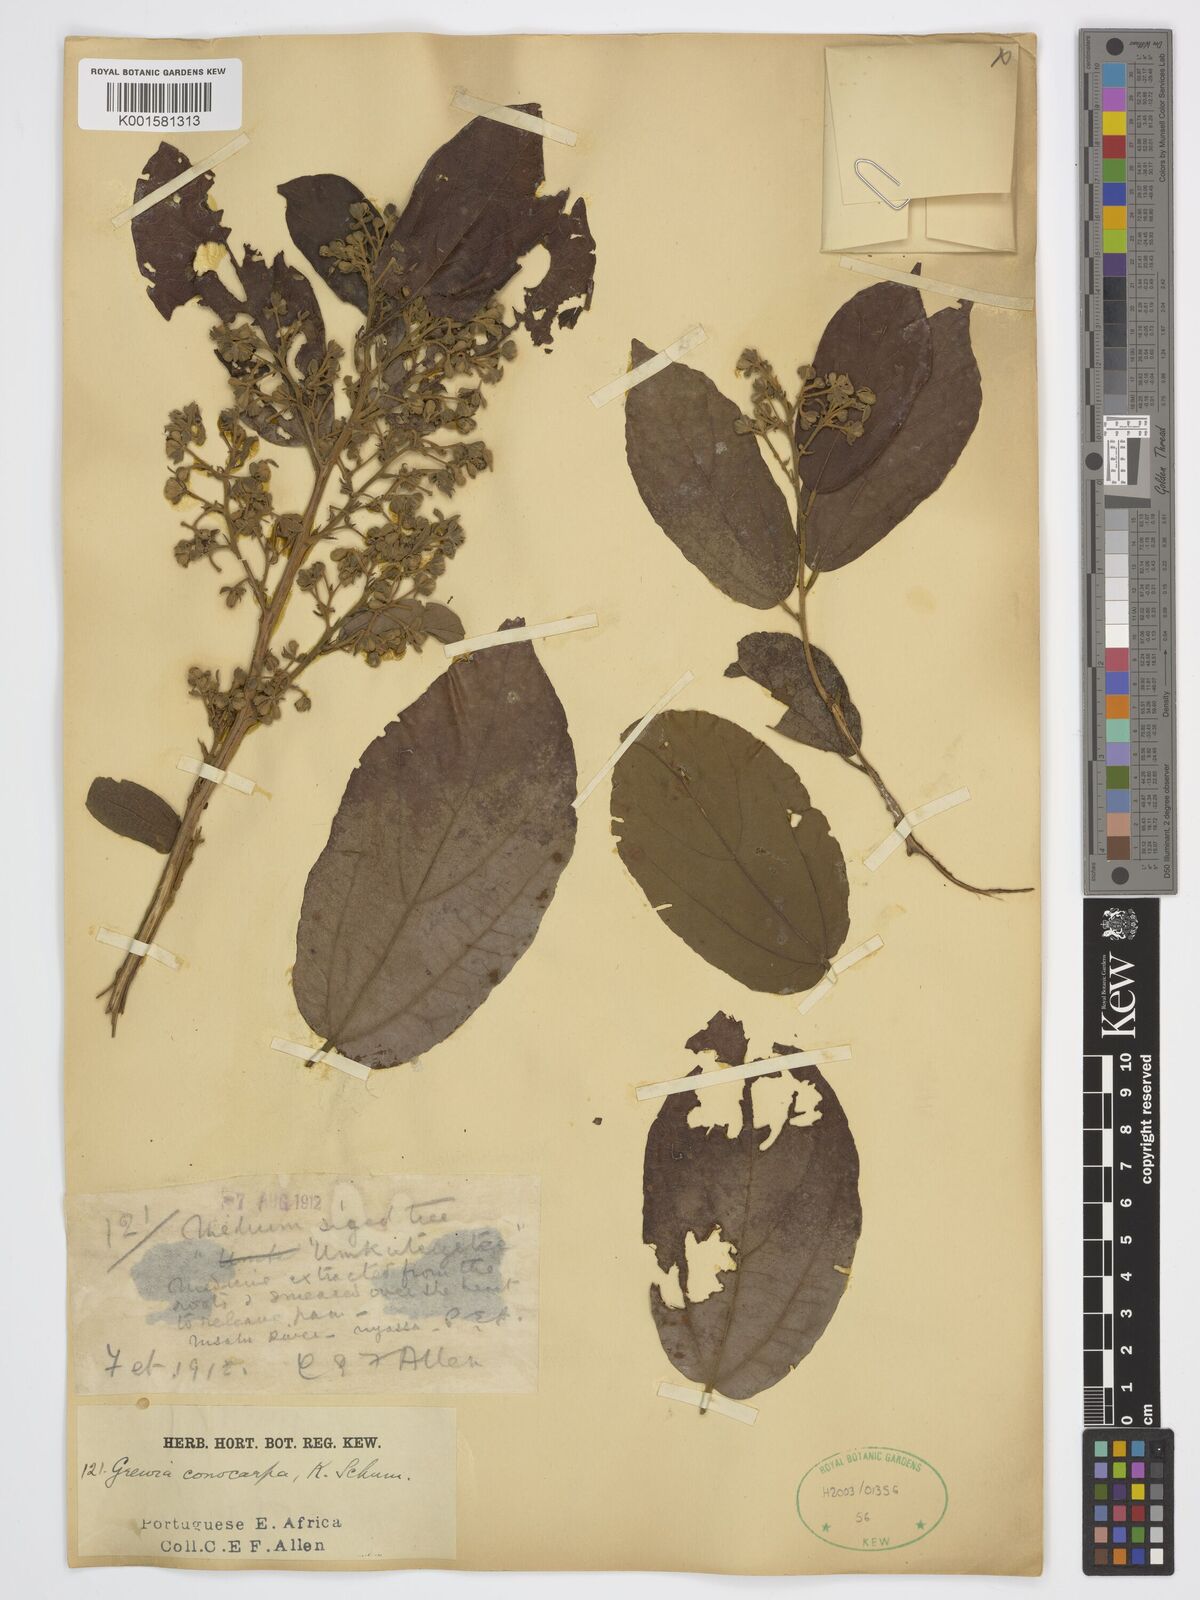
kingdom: Plantae
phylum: Tracheophyta
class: Magnoliopsida
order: Malvales
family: Malvaceae
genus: Microcos
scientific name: Microcos conocarpa
